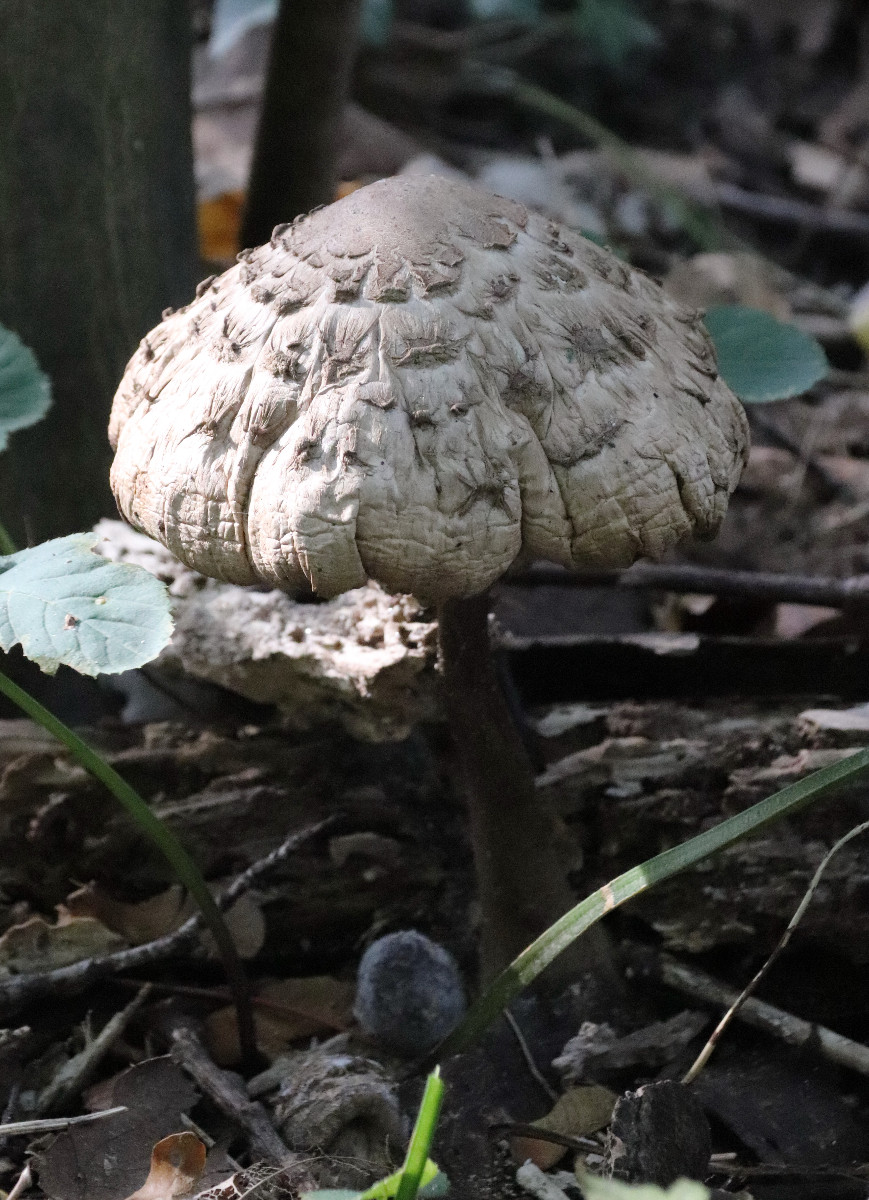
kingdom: Fungi
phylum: Basidiomycota
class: Agaricomycetes
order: Agaricales
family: Agaricaceae
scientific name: Agaricaceae
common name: champignonfamilien
